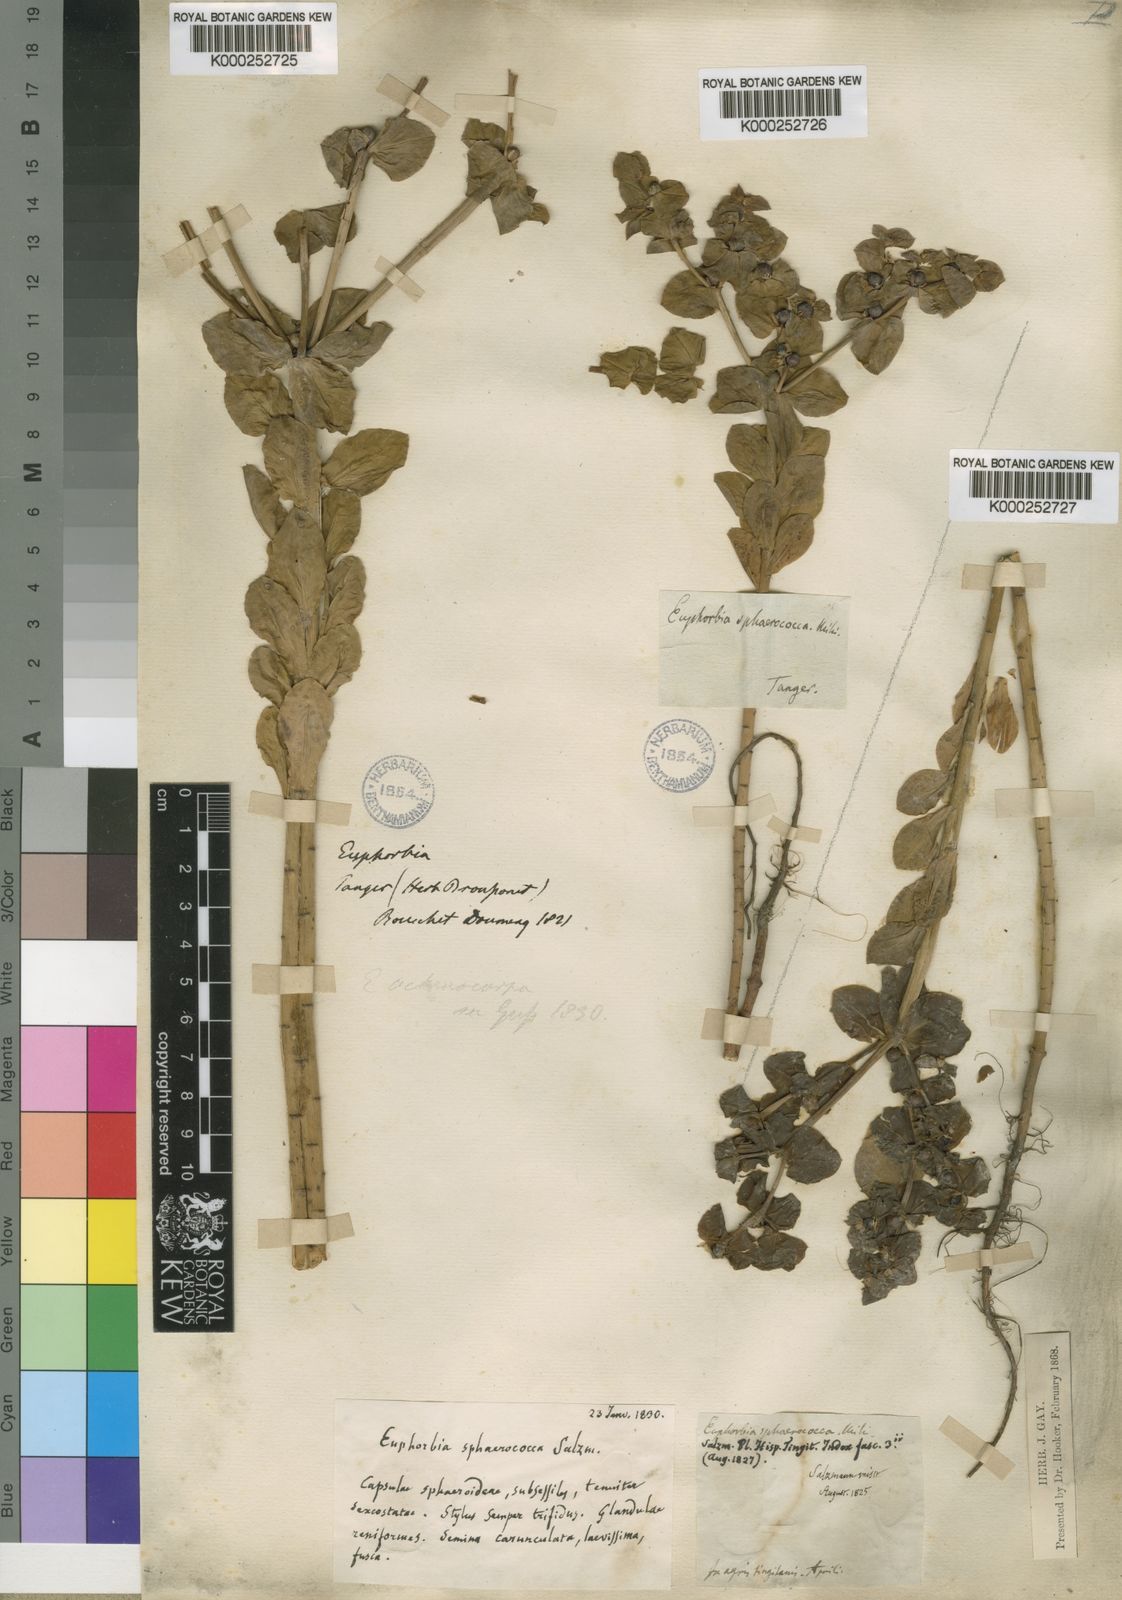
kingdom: Plantae
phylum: Tracheophyta
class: Magnoliopsida
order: Malpighiales
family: Euphorbiaceae
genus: Euphorbia
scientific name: Euphorbia akenocarpa
